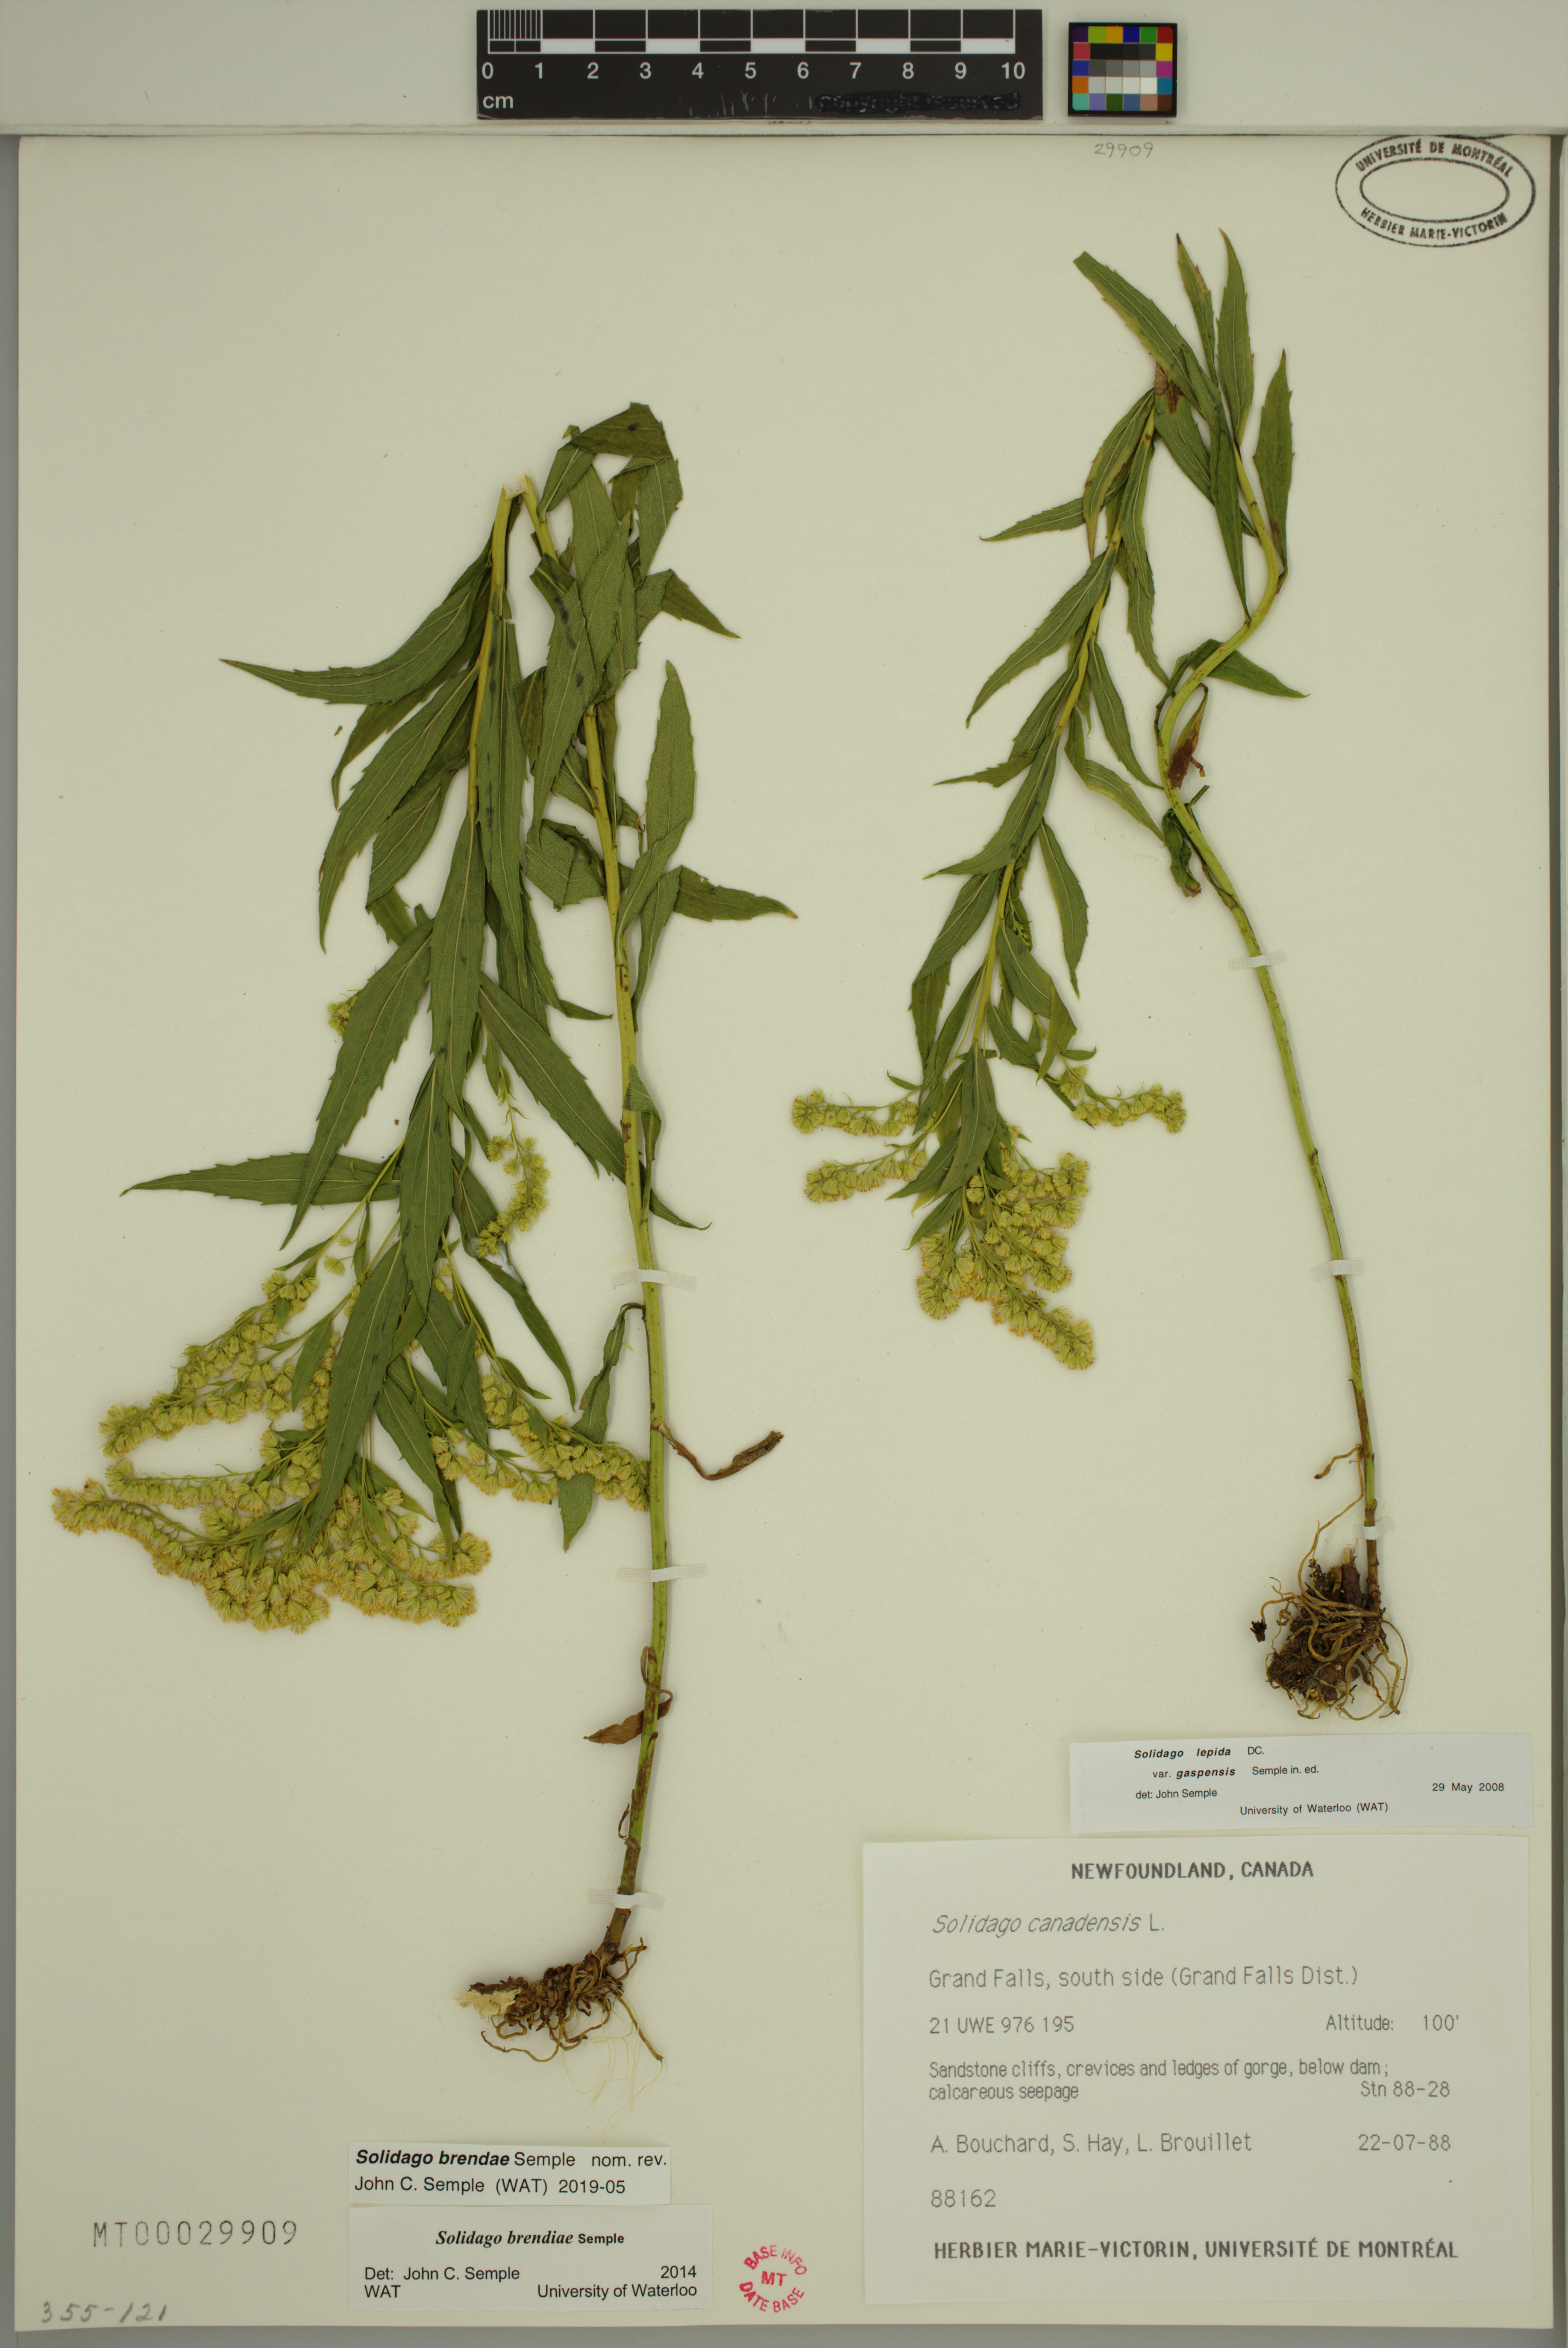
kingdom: Plantae
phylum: Tracheophyta
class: Magnoliopsida
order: Asterales
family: Asteraceae
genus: Solidago
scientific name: Solidago brendae
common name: Brenda's goldenrod
